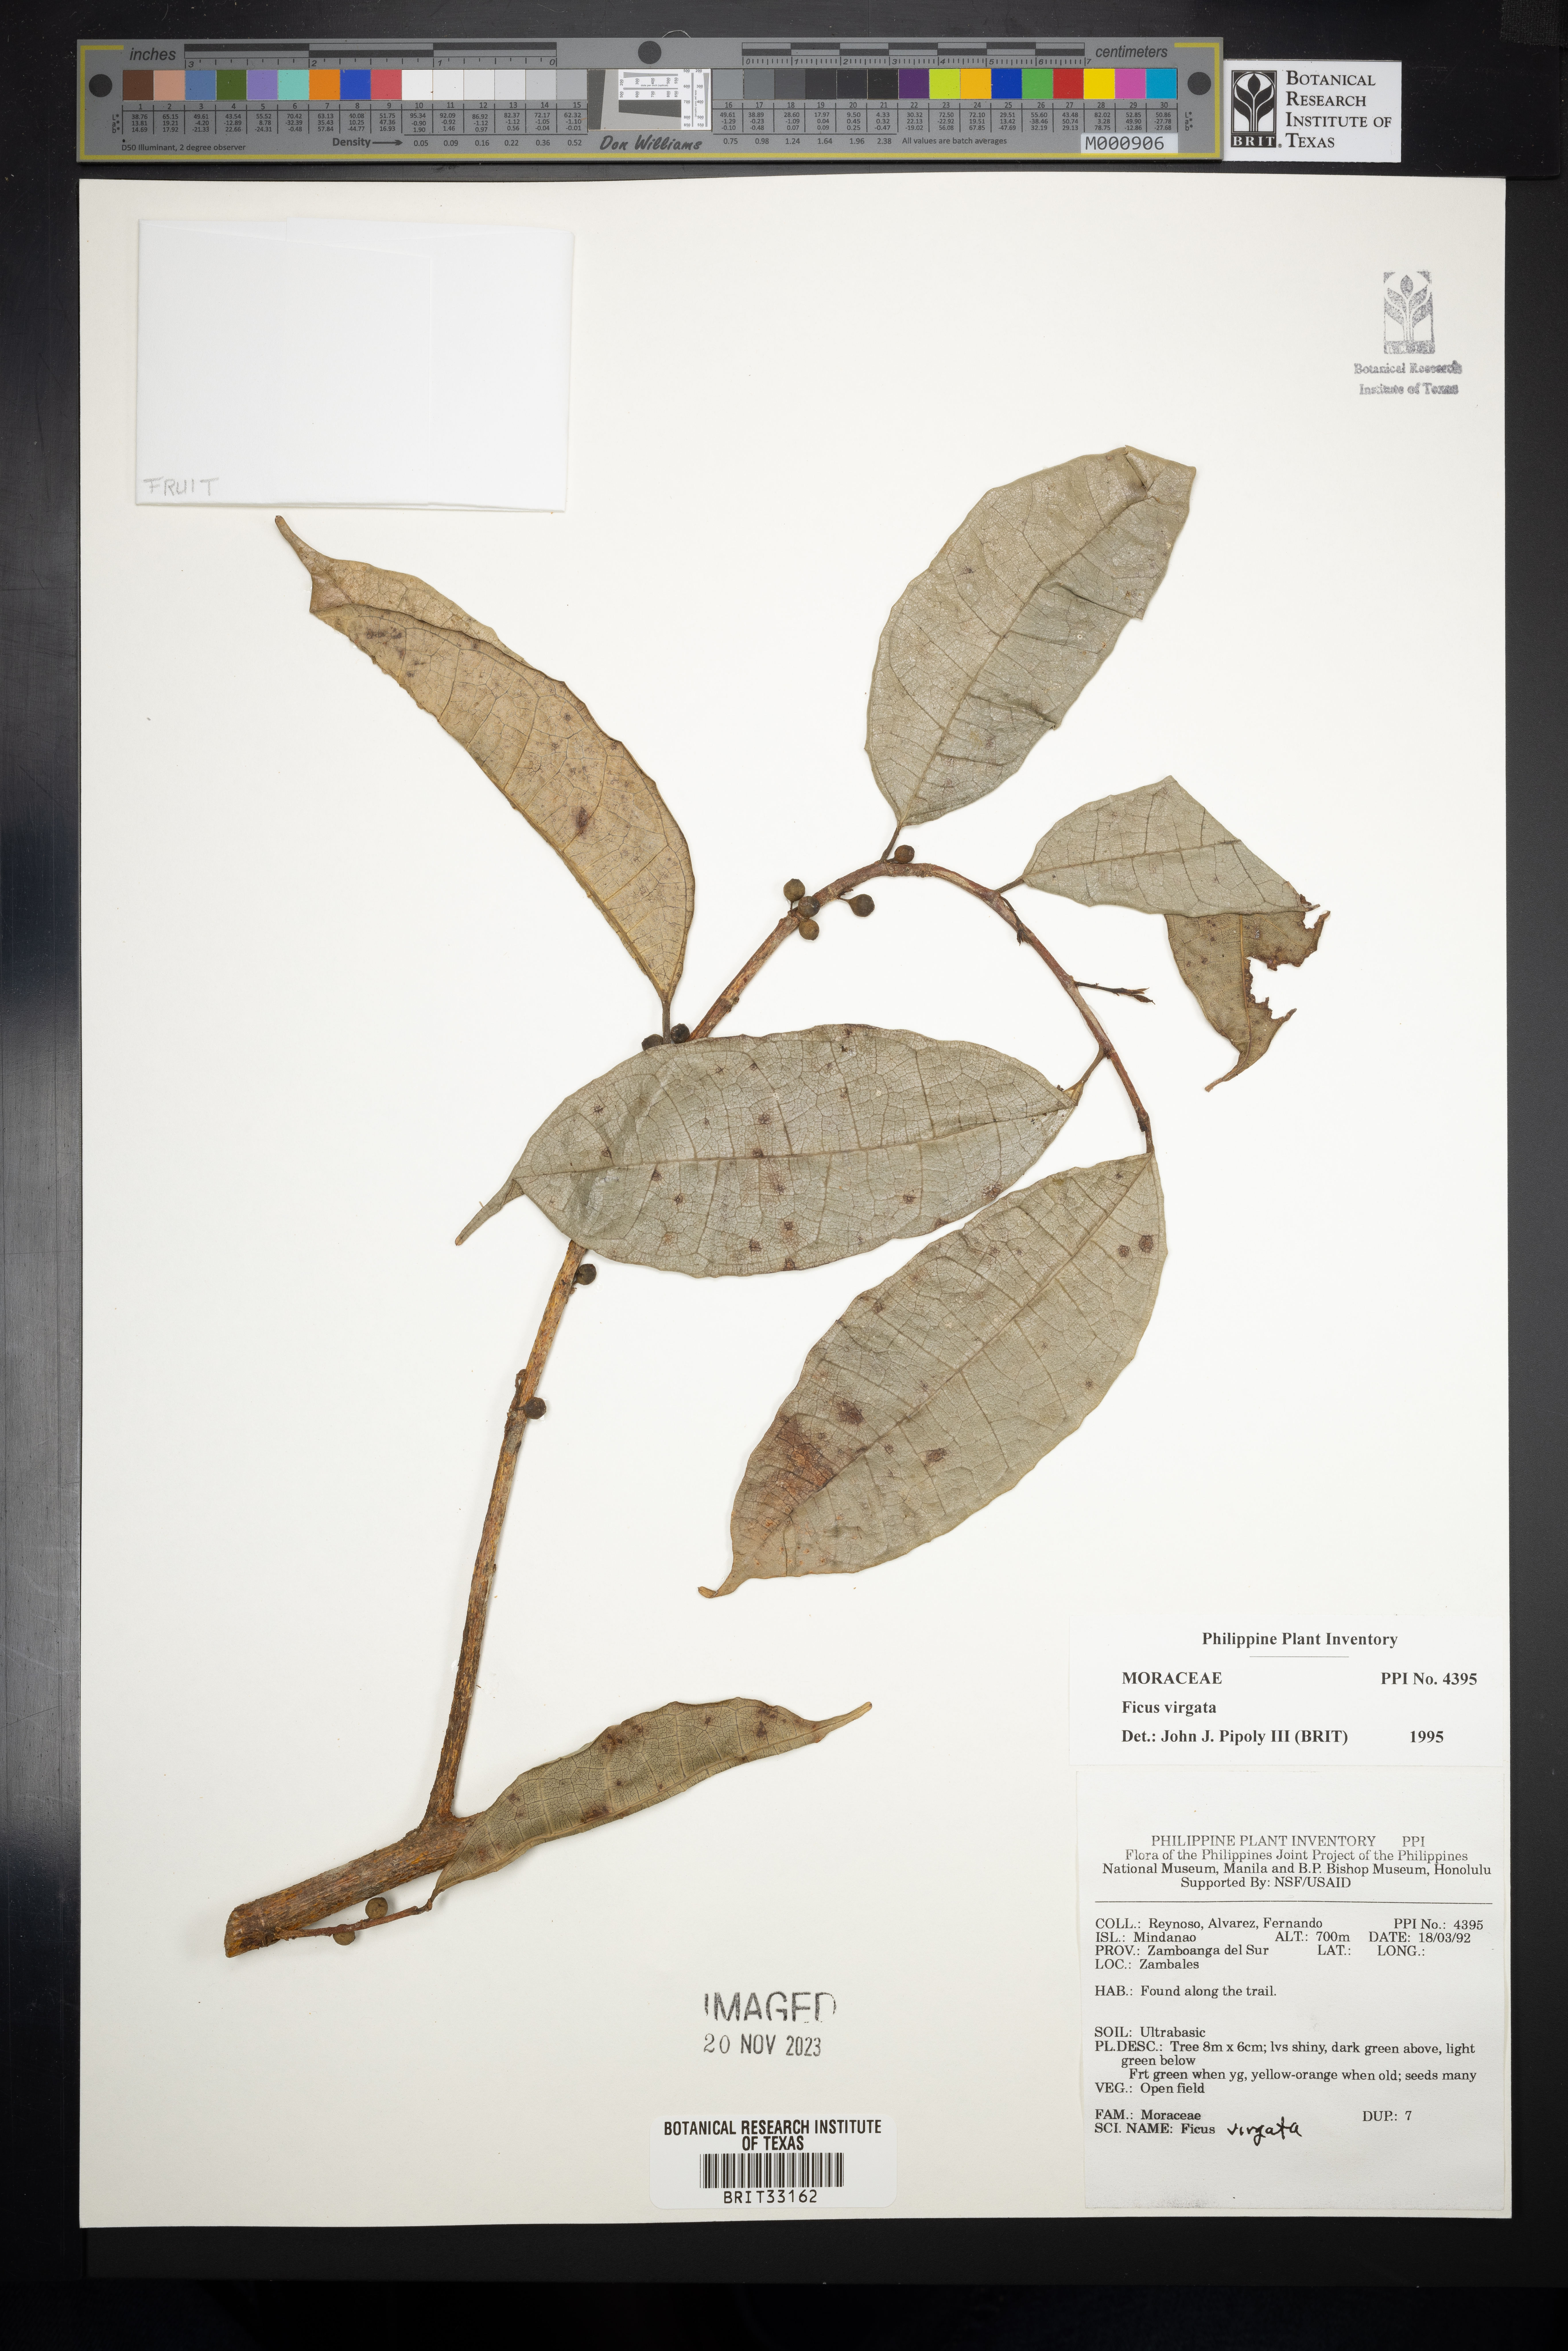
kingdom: Plantae
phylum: Tracheophyta
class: Magnoliopsida
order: Rosales
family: Moraceae
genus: Ficus
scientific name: Ficus virgata
